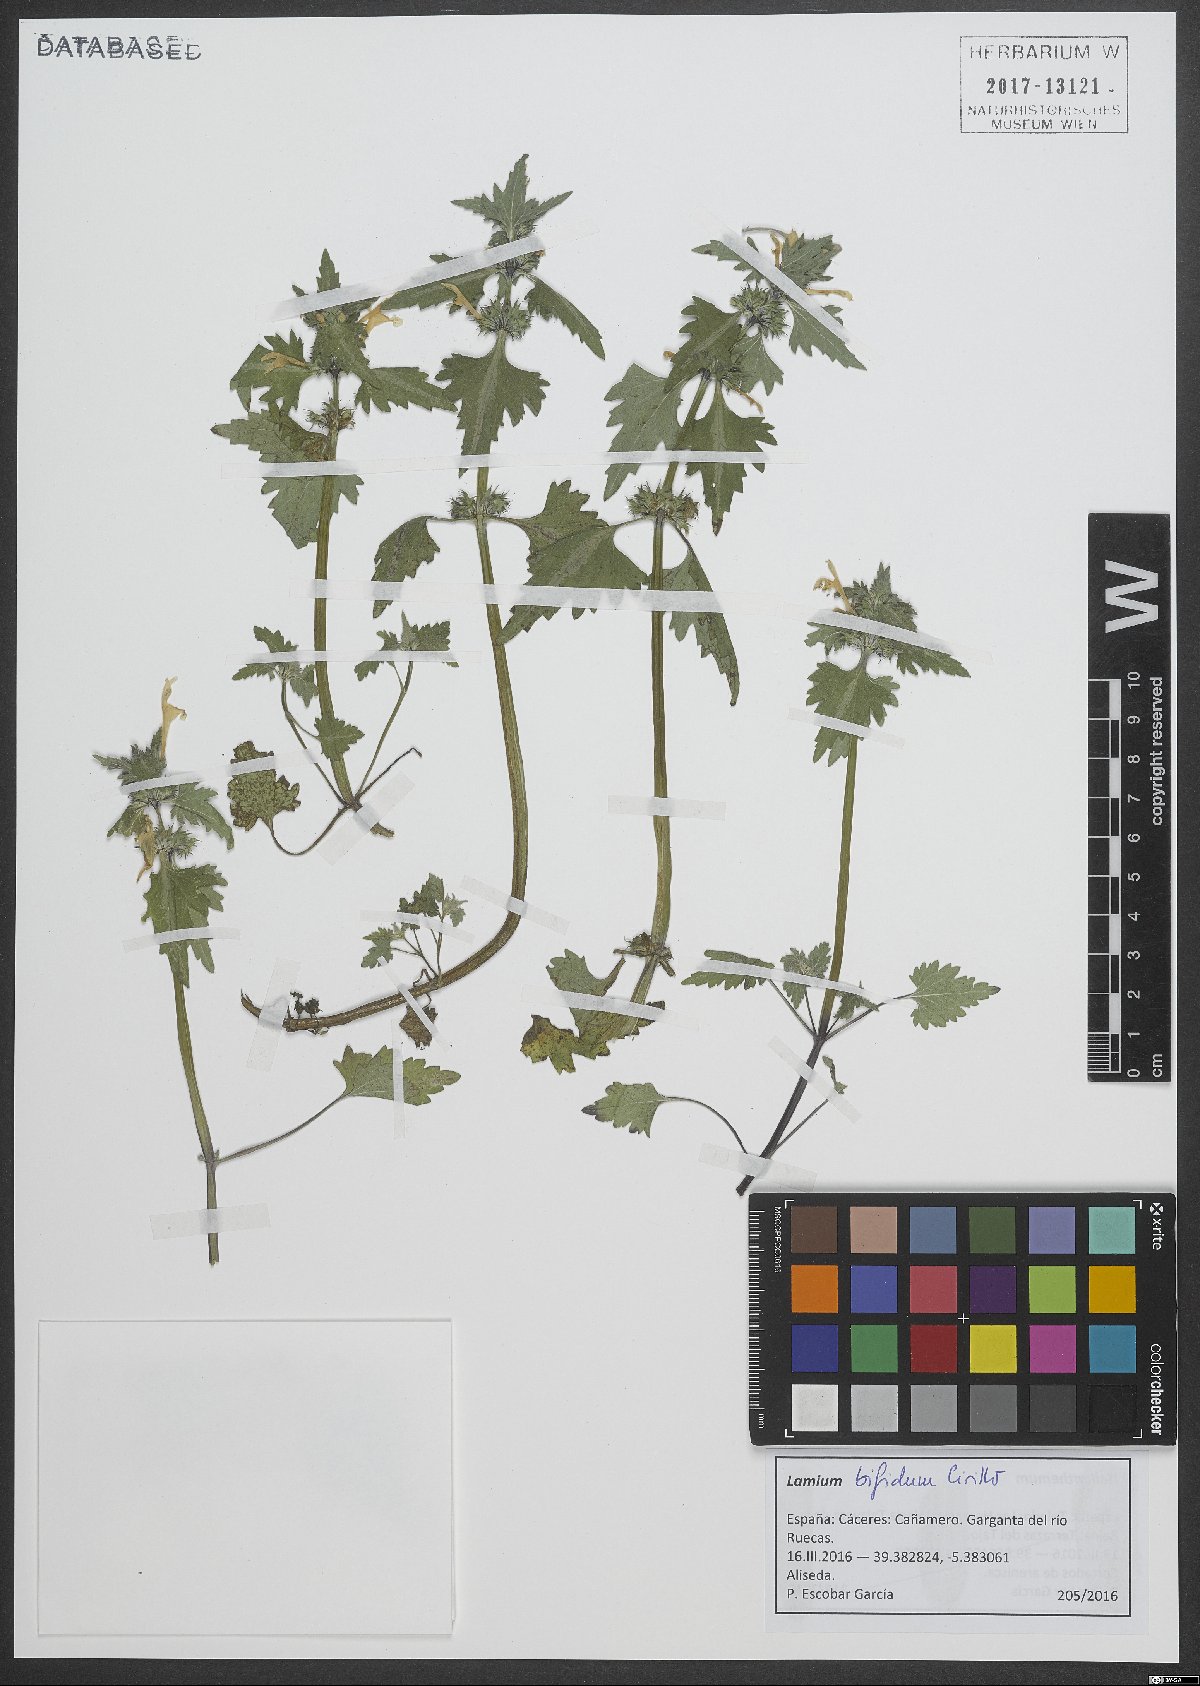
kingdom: Plantae
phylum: Tracheophyta
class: Magnoliopsida
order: Lamiales
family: Lamiaceae
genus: Lamium
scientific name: Lamium bifidum
